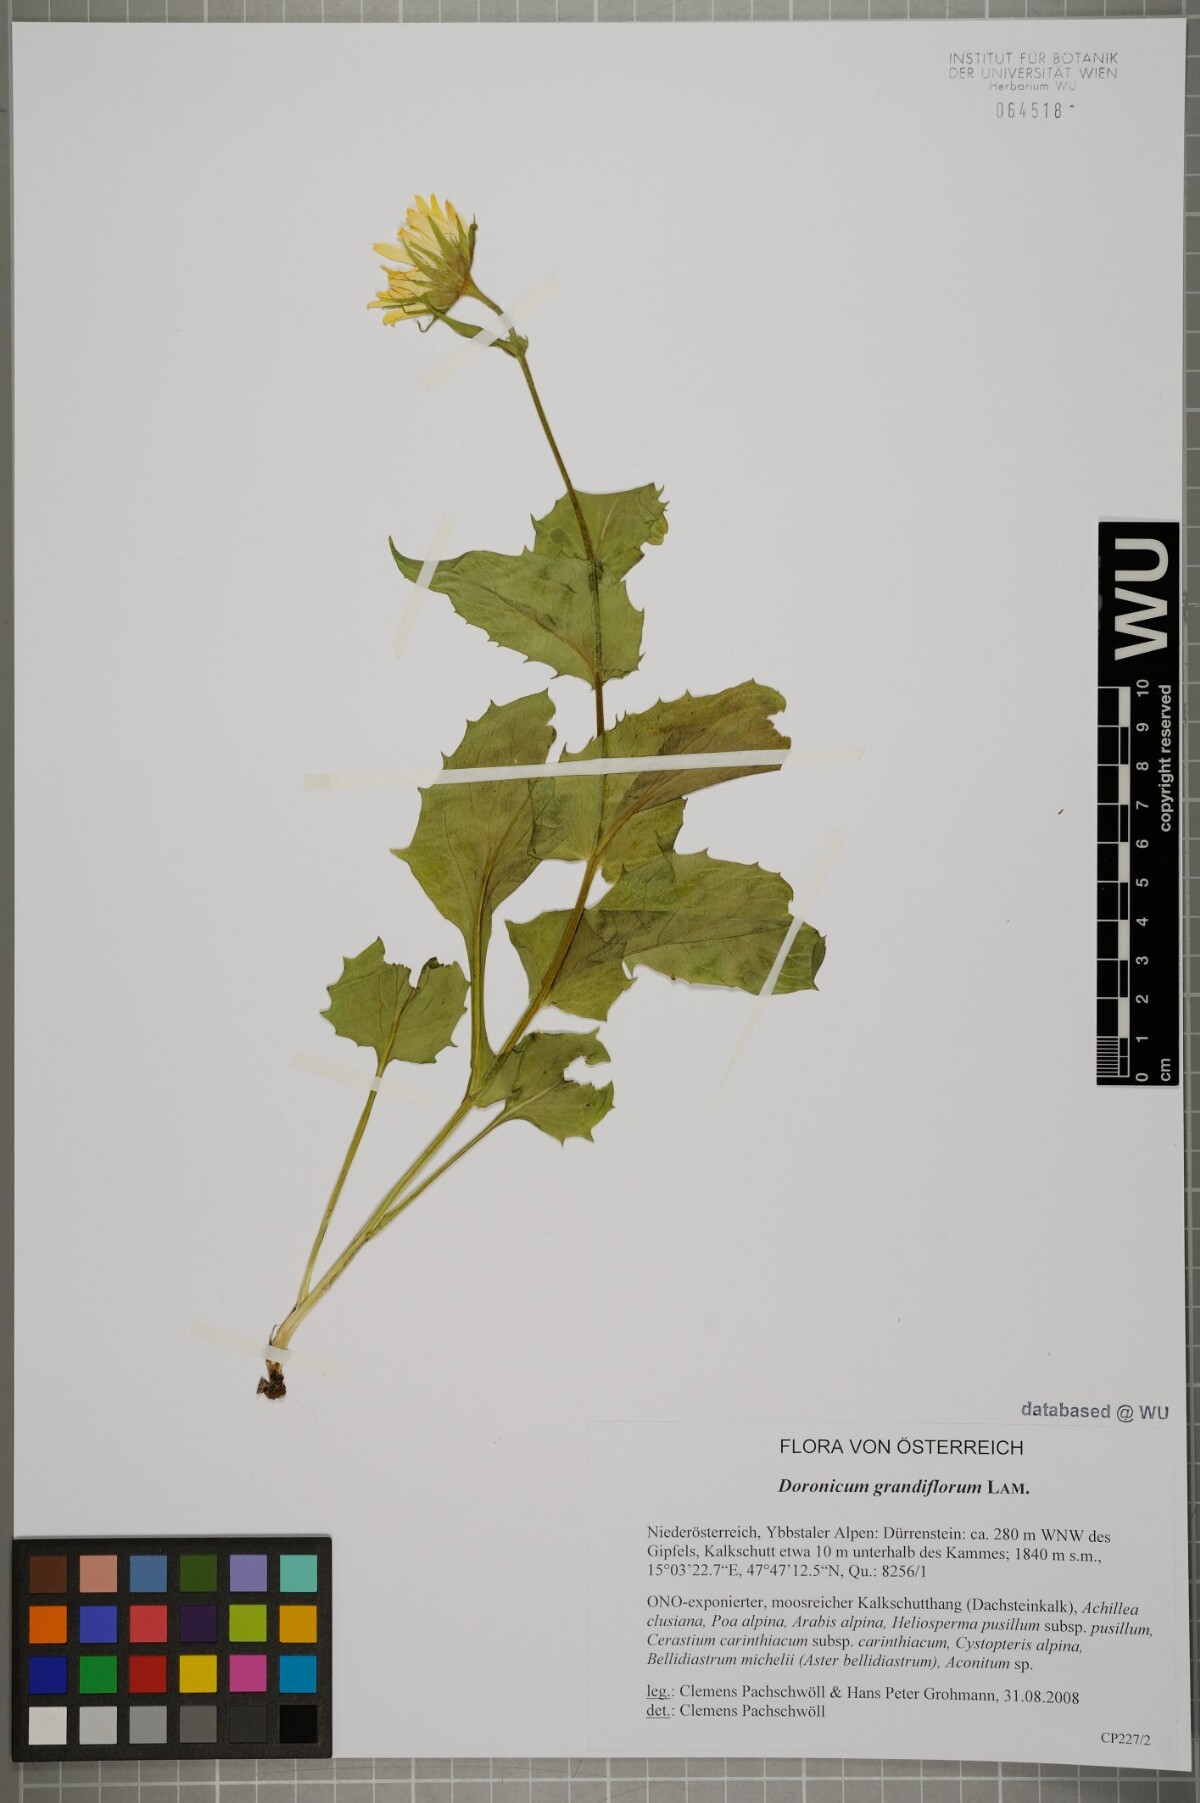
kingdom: Plantae
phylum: Tracheophyta
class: Magnoliopsida
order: Asterales
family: Asteraceae
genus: Doronicum
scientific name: Doronicum grandiflorum
